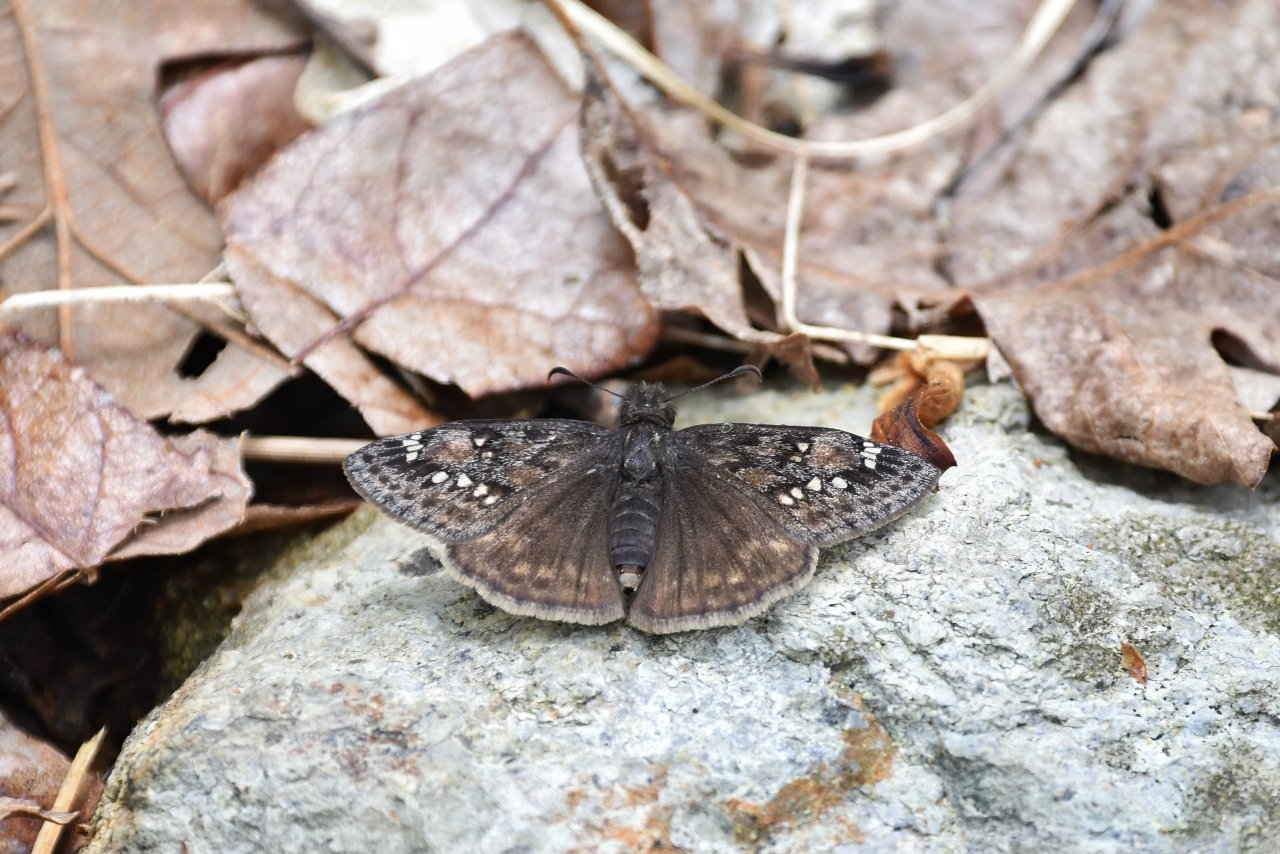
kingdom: Animalia
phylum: Arthropoda
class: Insecta
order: Lepidoptera
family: Hesperiidae
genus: Gesta
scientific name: Gesta
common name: Juvenal's Duskywing
